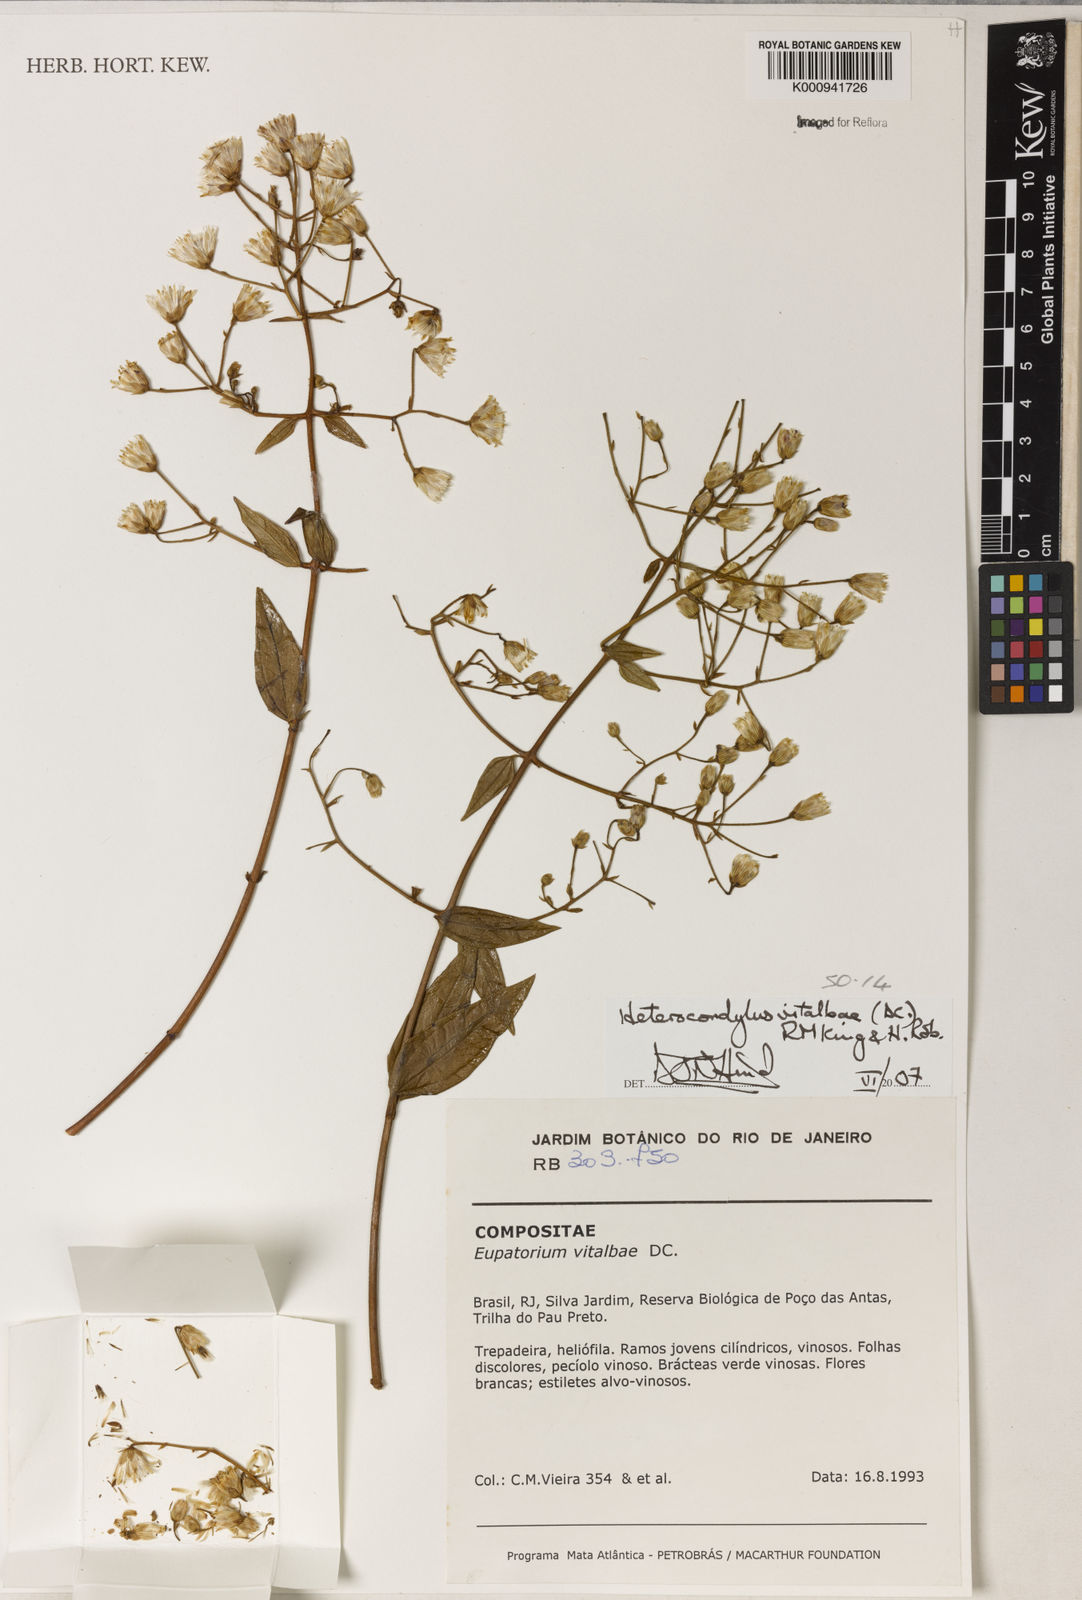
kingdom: Plantae
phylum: Tracheophyta
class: Magnoliopsida
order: Asterales
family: Asteraceae
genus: Heterocondylus
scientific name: Heterocondylus vitalbae
